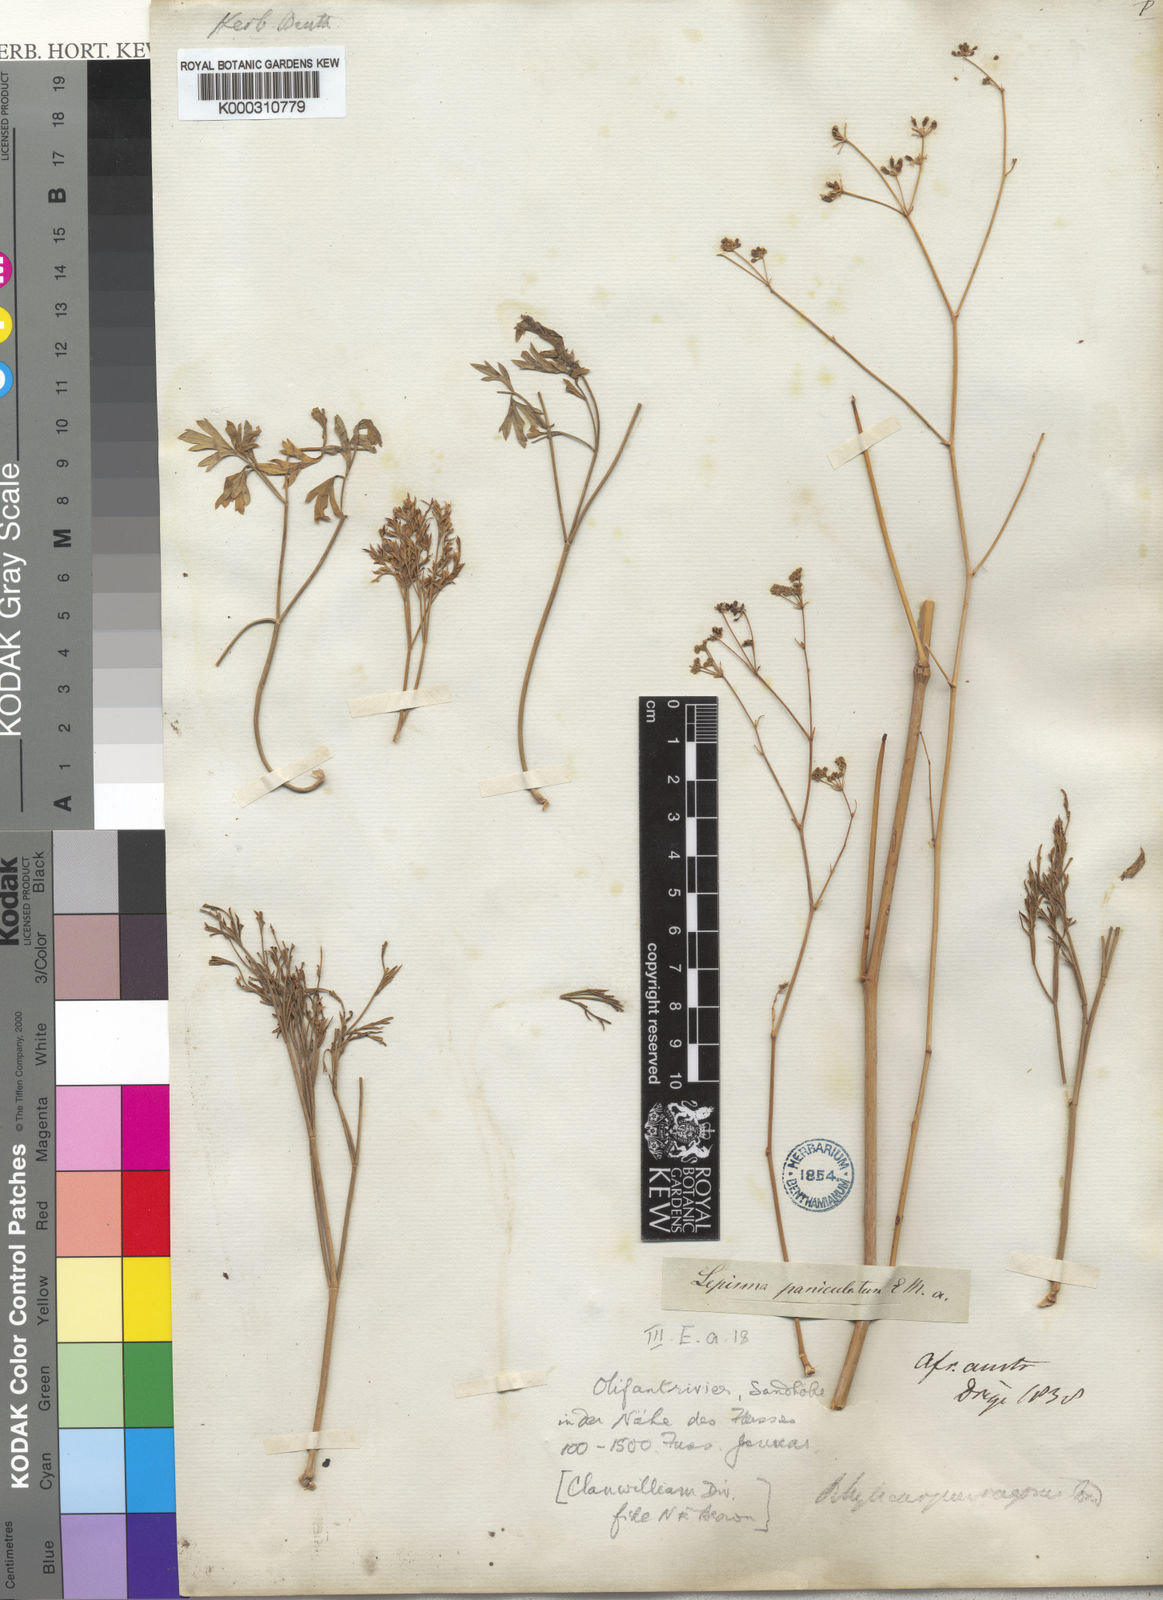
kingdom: Plantae
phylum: Tracheophyta
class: Magnoliopsida
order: Apiales
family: Apiaceae
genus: Anginon
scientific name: Anginon paniculatum
